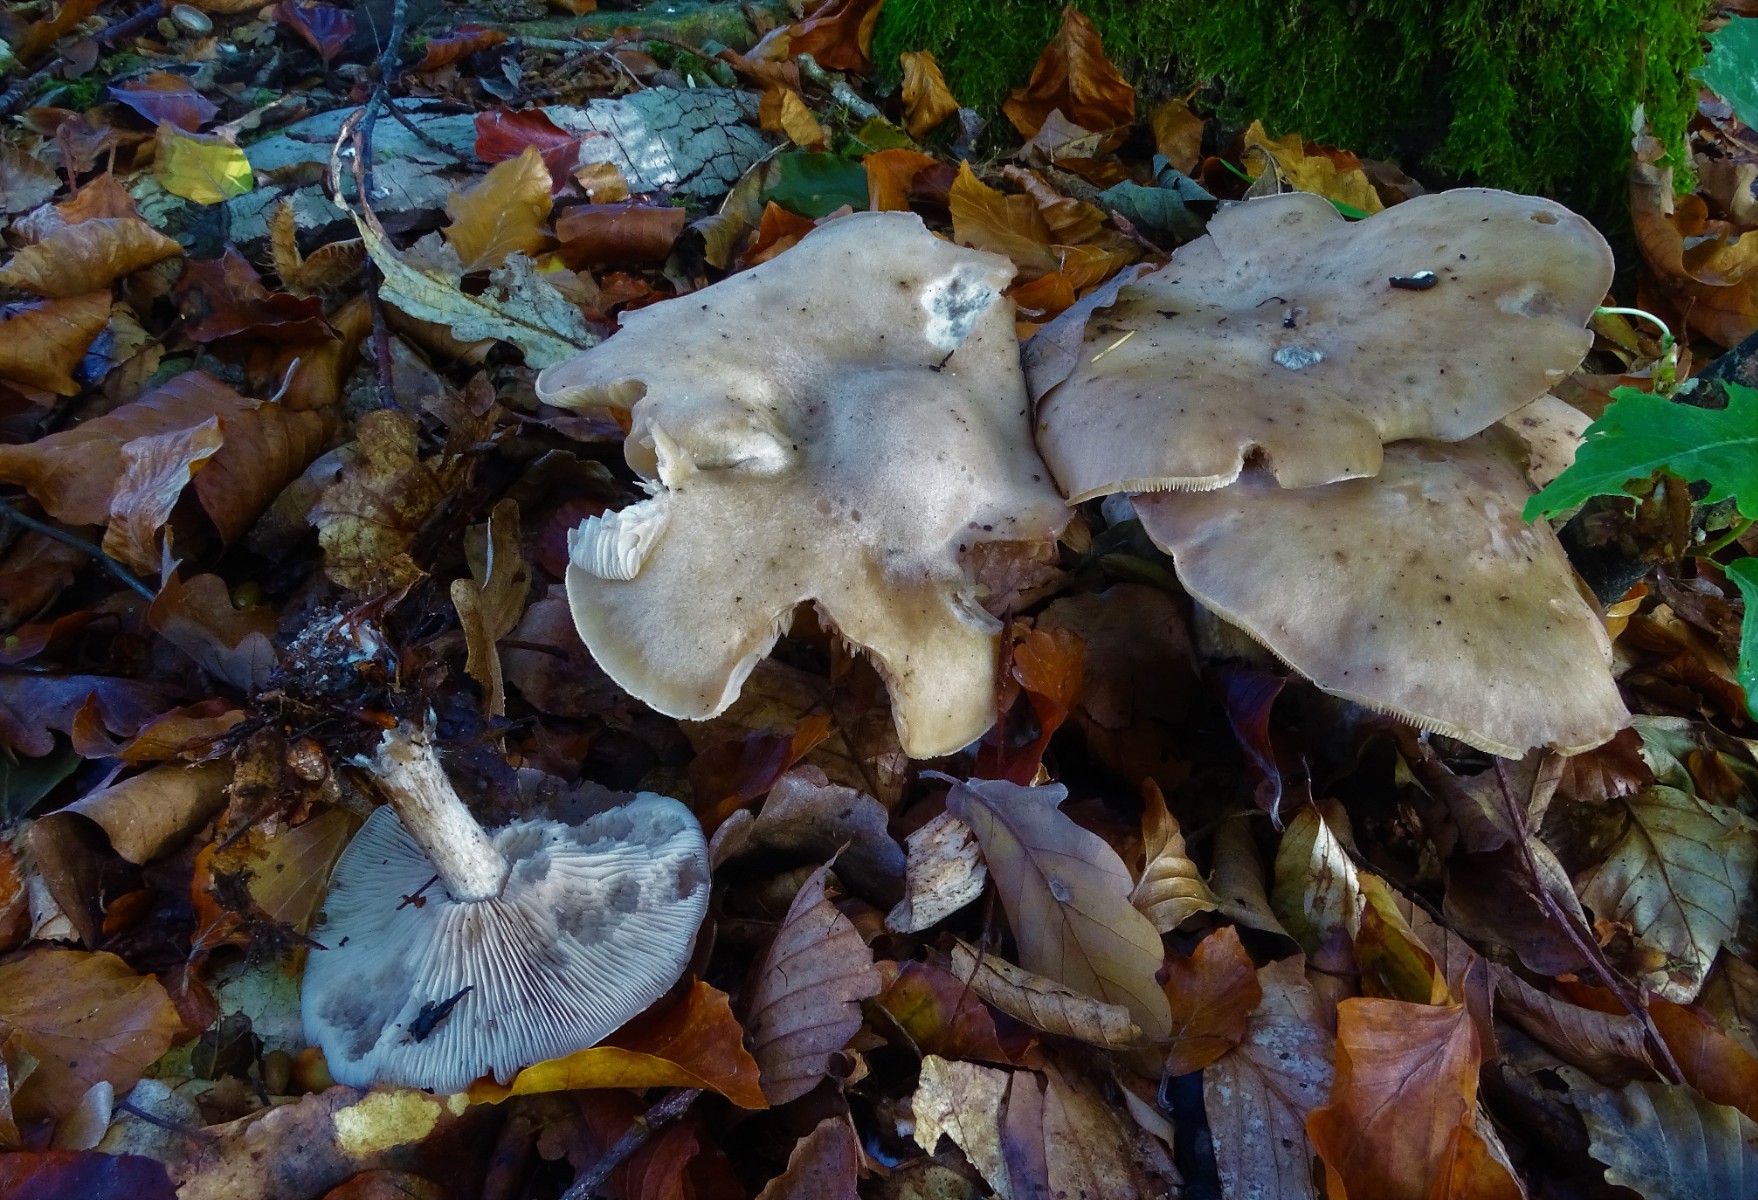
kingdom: Fungi
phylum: Basidiomycota
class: Agaricomycetes
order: Agaricales
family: Tricholomataceae
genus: Lepista
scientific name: Lepista irina
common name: violduftende hekseringshat
